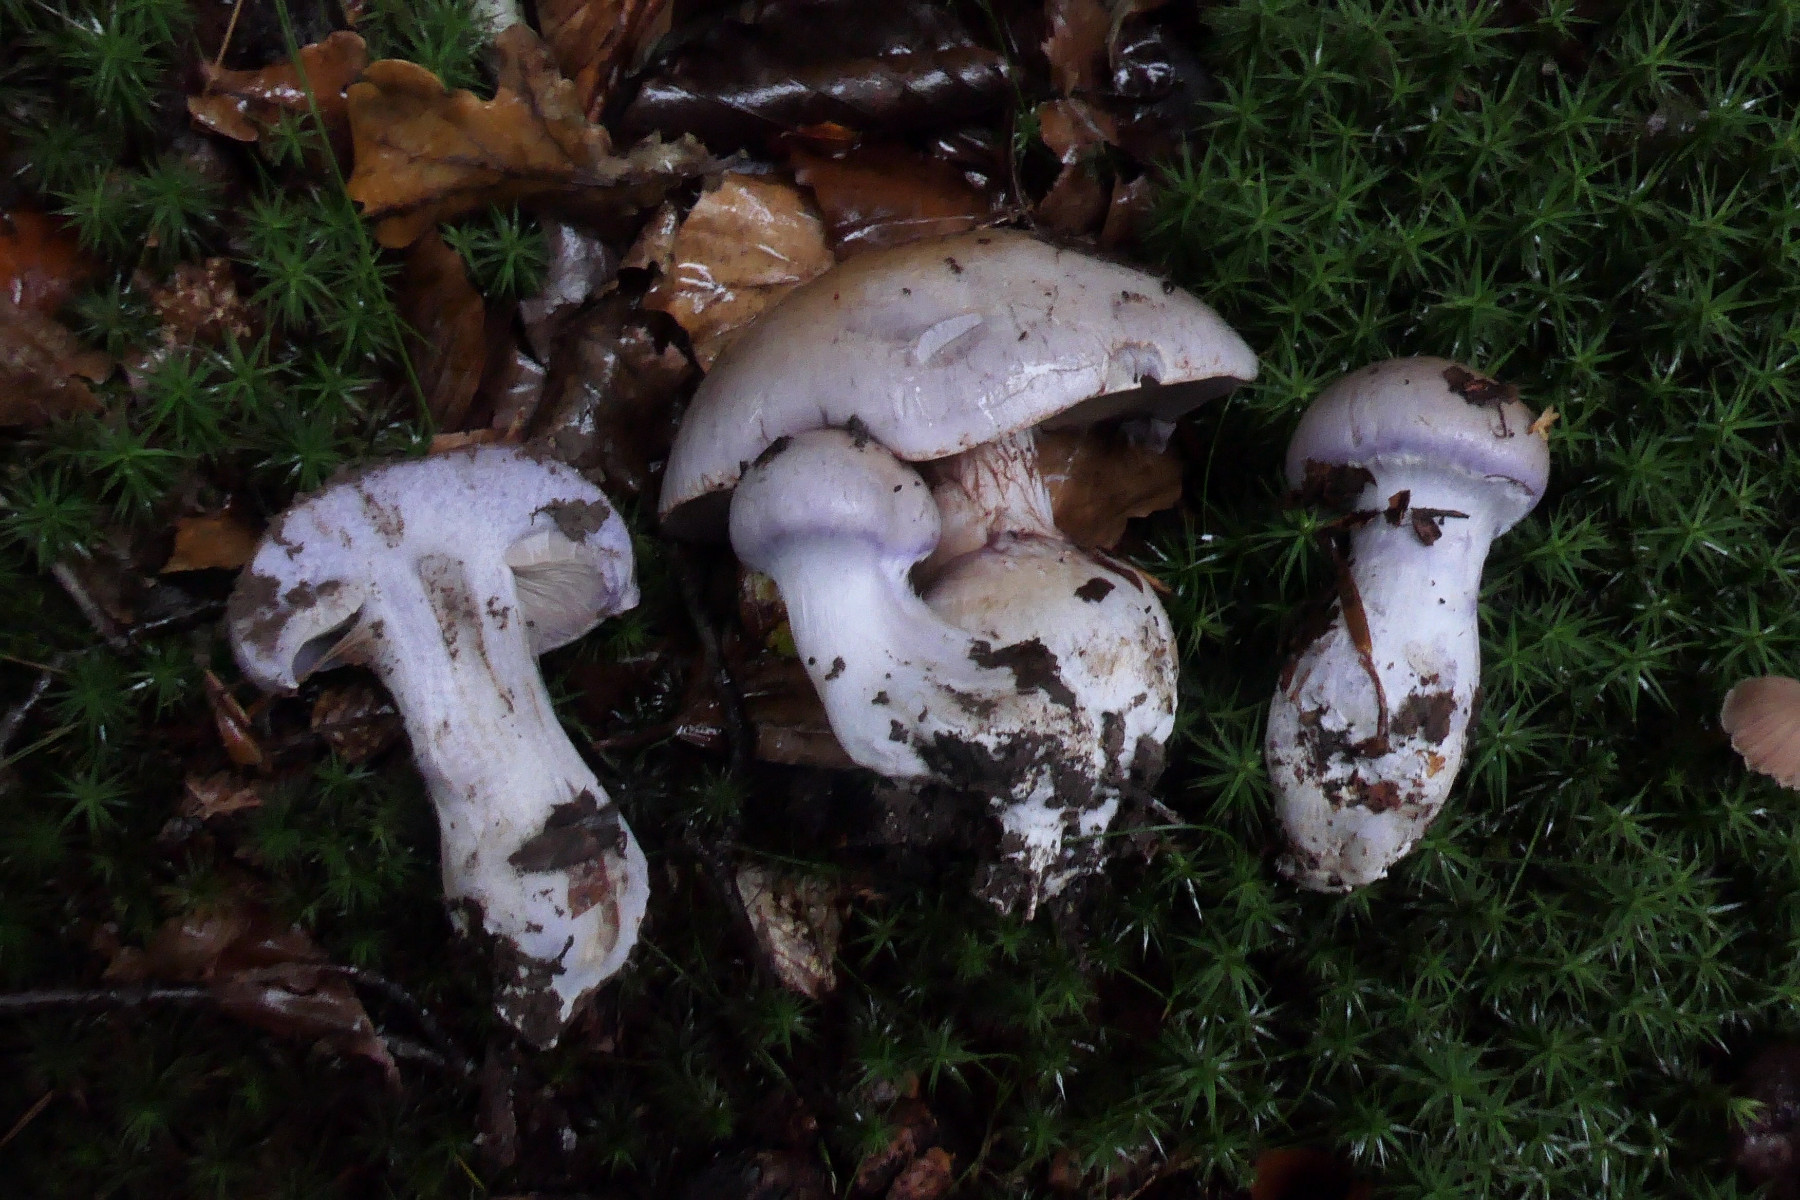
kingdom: Fungi
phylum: Basidiomycota
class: Agaricomycetes
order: Agaricales
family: Cortinariaceae
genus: Cortinarius
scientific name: Cortinarius largus
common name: violetrandet slørhat
